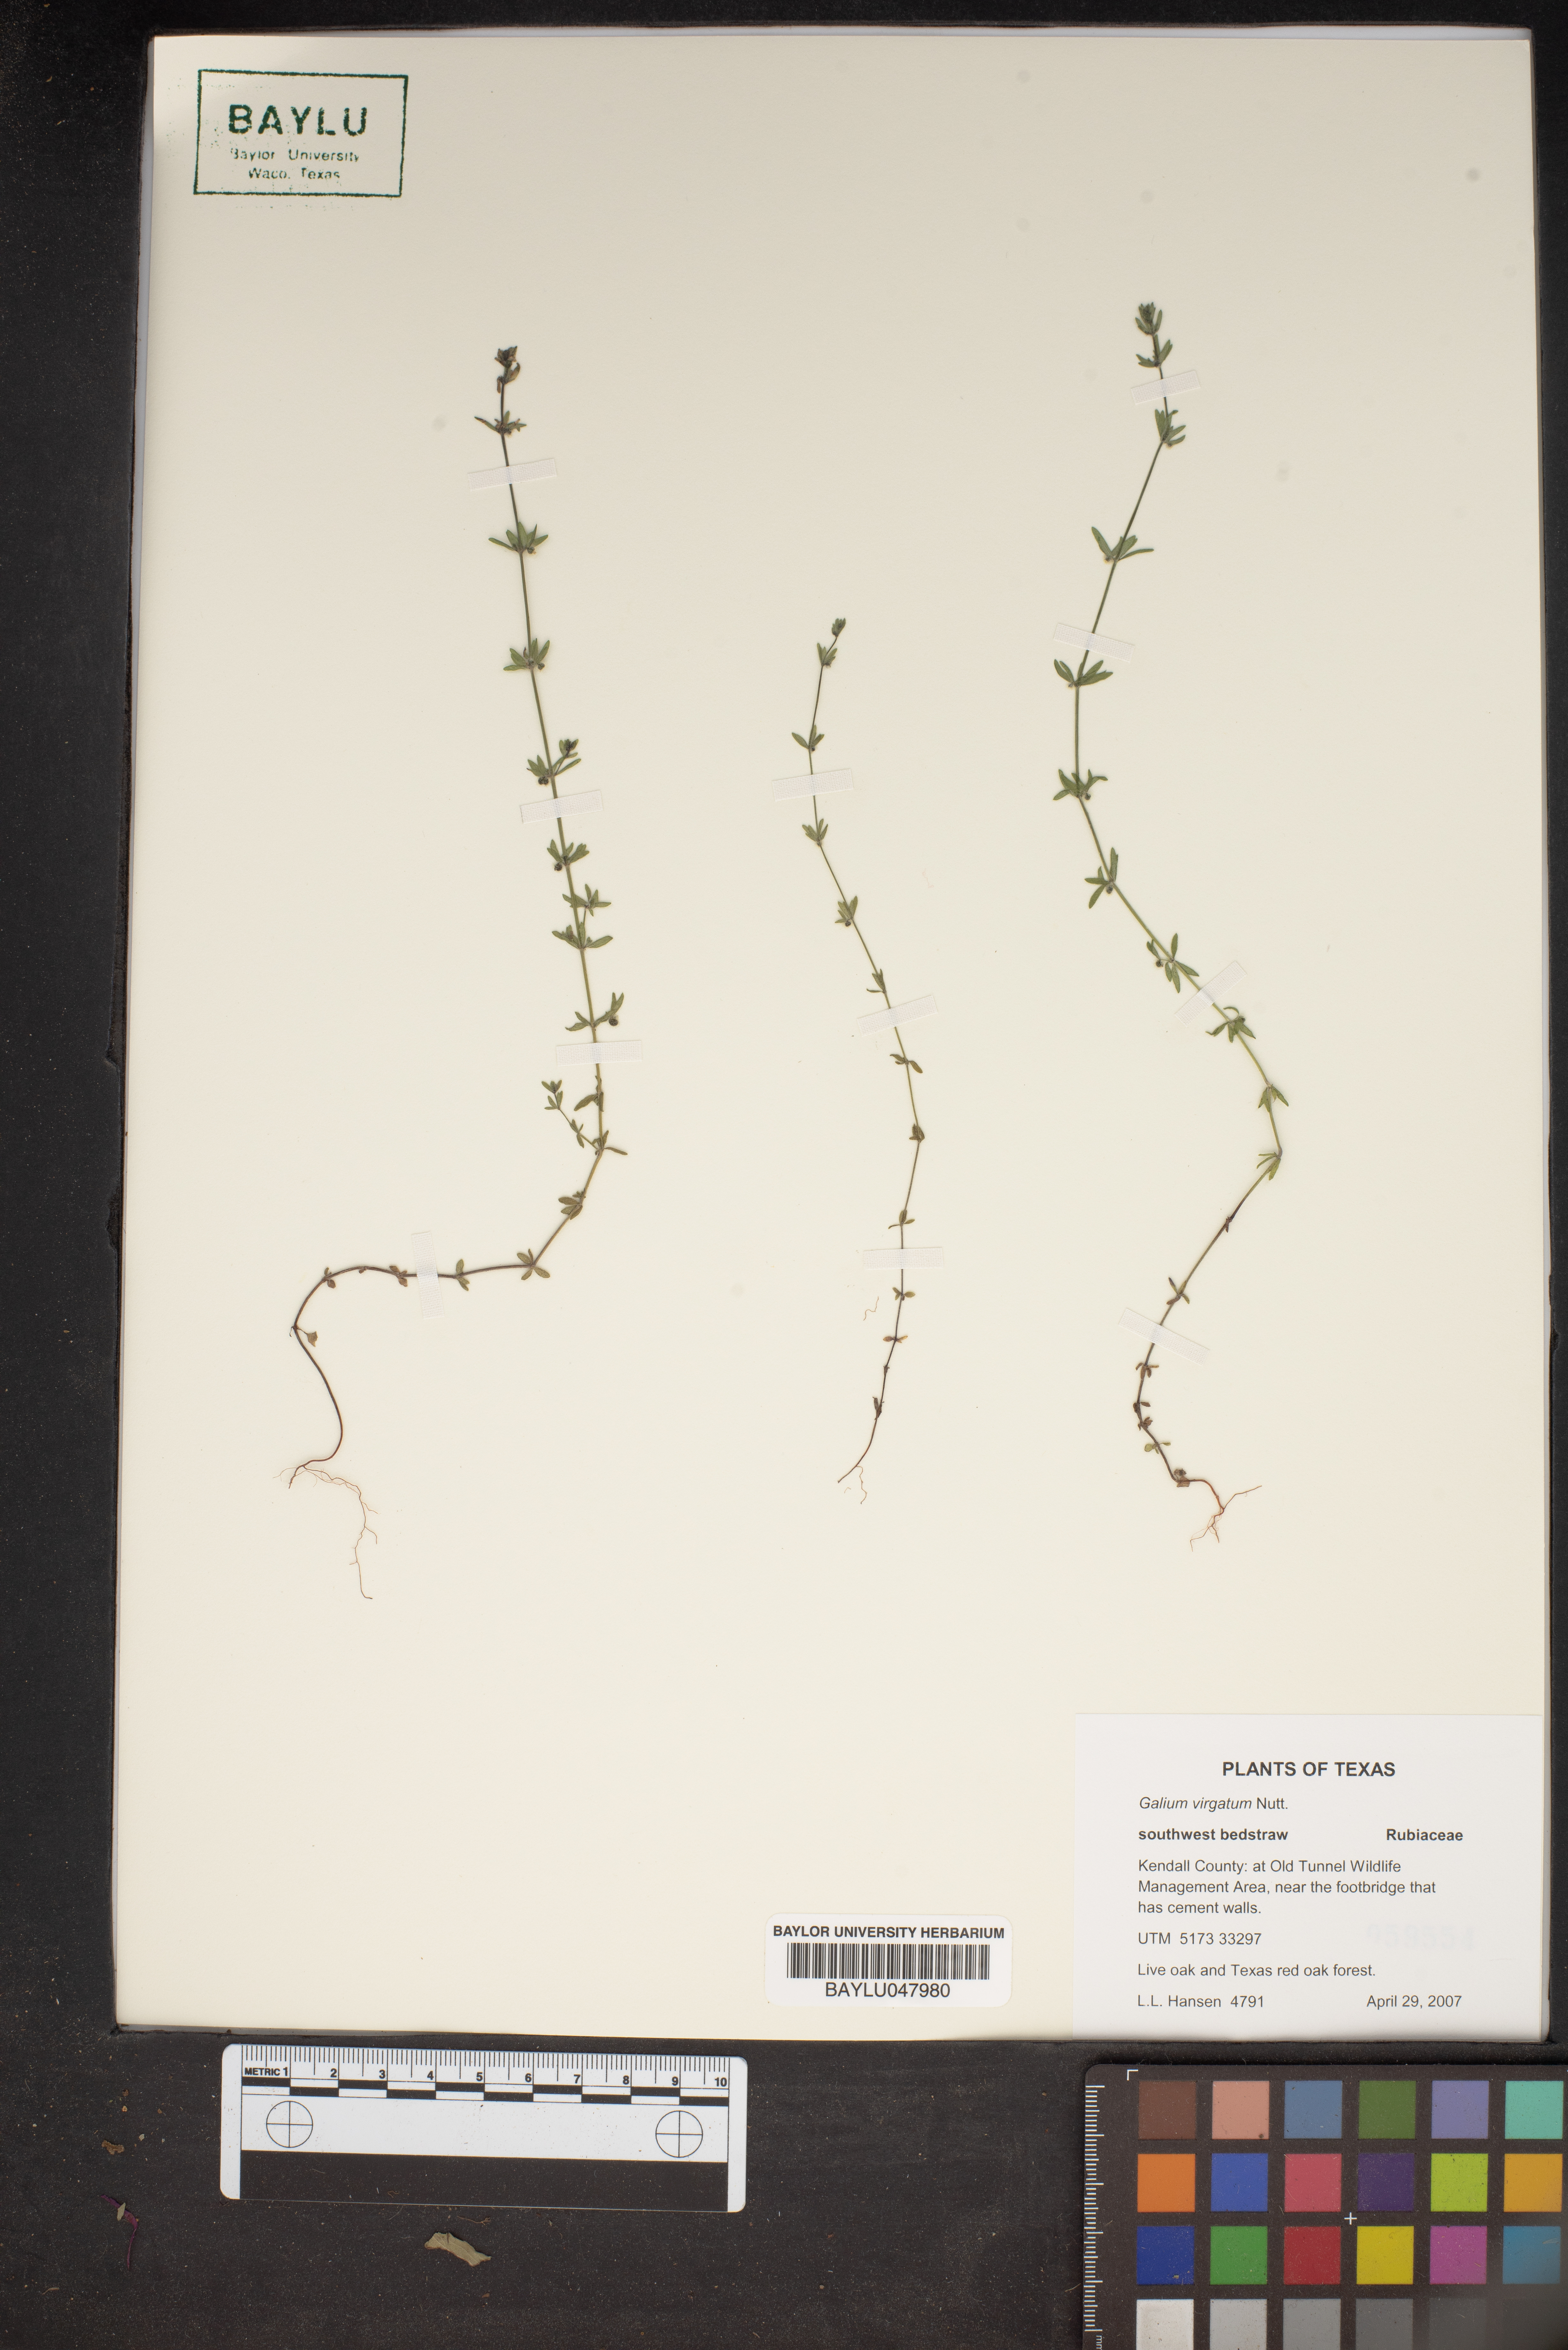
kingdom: Plantae
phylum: Tracheophyta
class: Magnoliopsida
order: Gentianales
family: Rubiaceae
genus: Galium
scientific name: Galium virgatum
